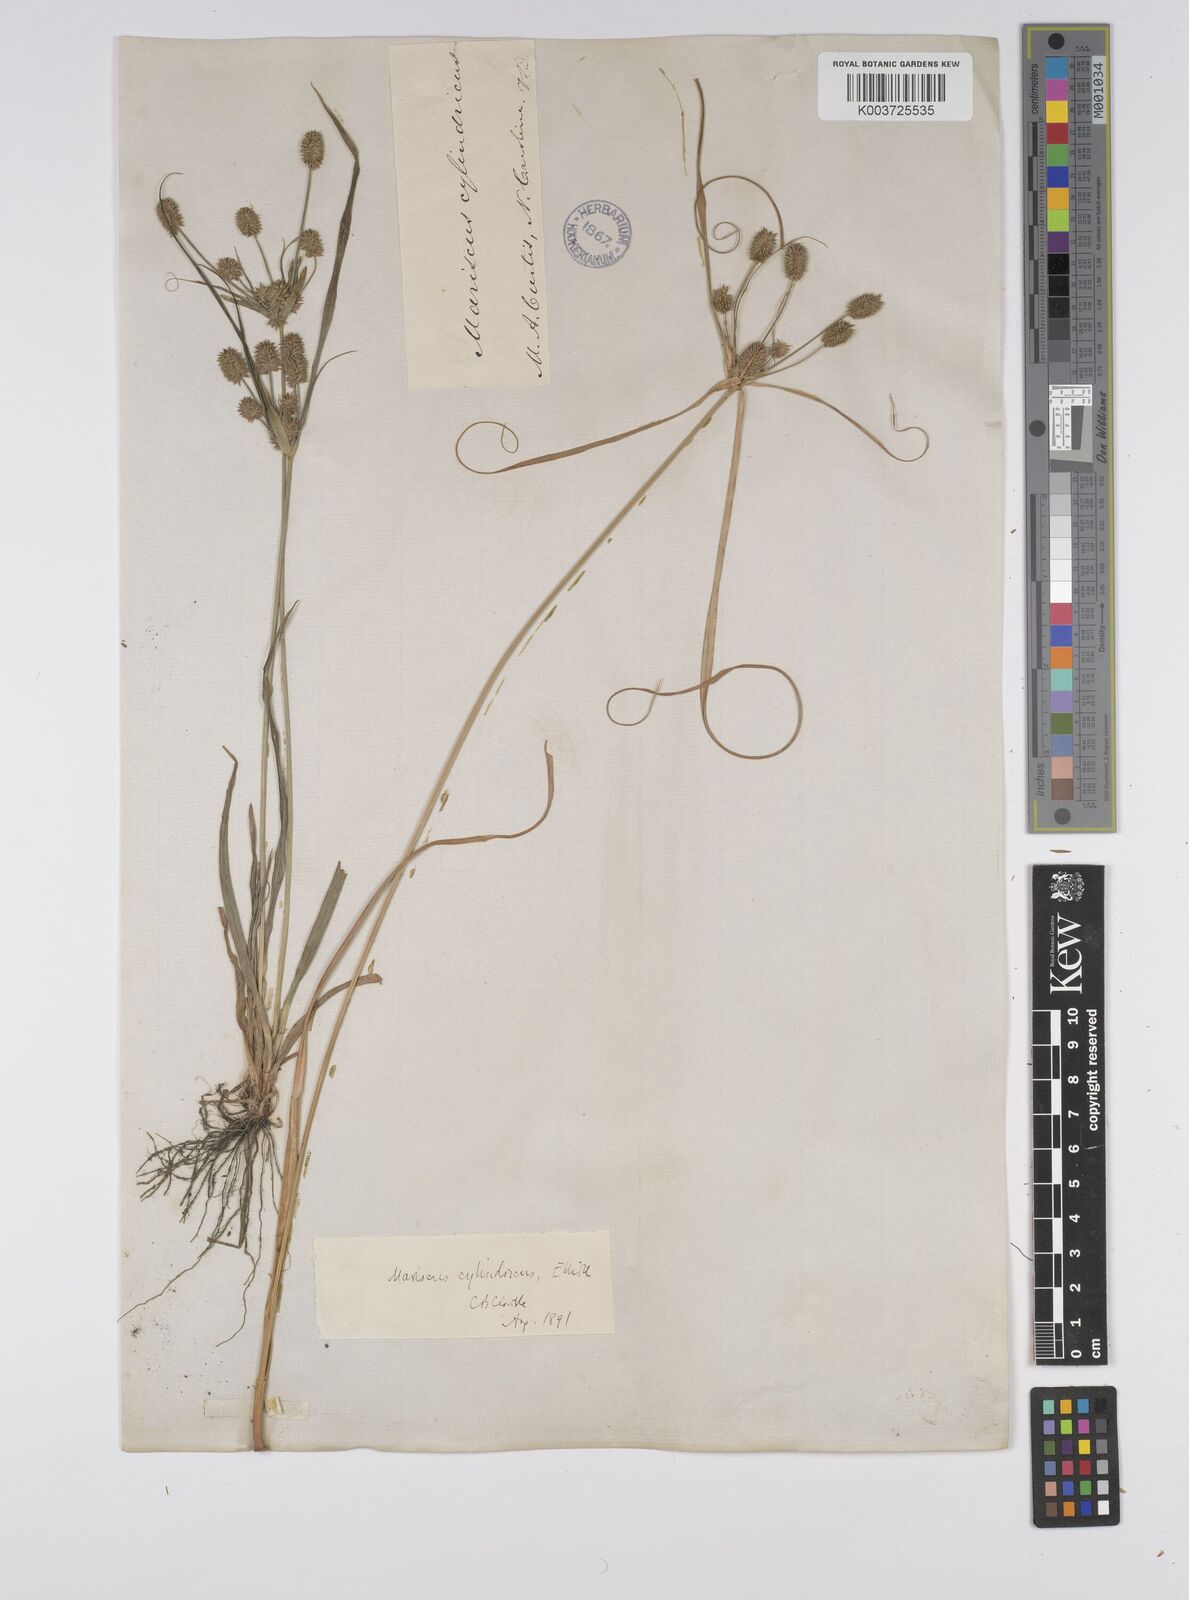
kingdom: Plantae
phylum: Tracheophyta
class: Liliopsida
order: Poales
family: Cyperaceae
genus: Cyperus
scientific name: Cyperus retrorsus
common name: Pinebarren flat sedge
